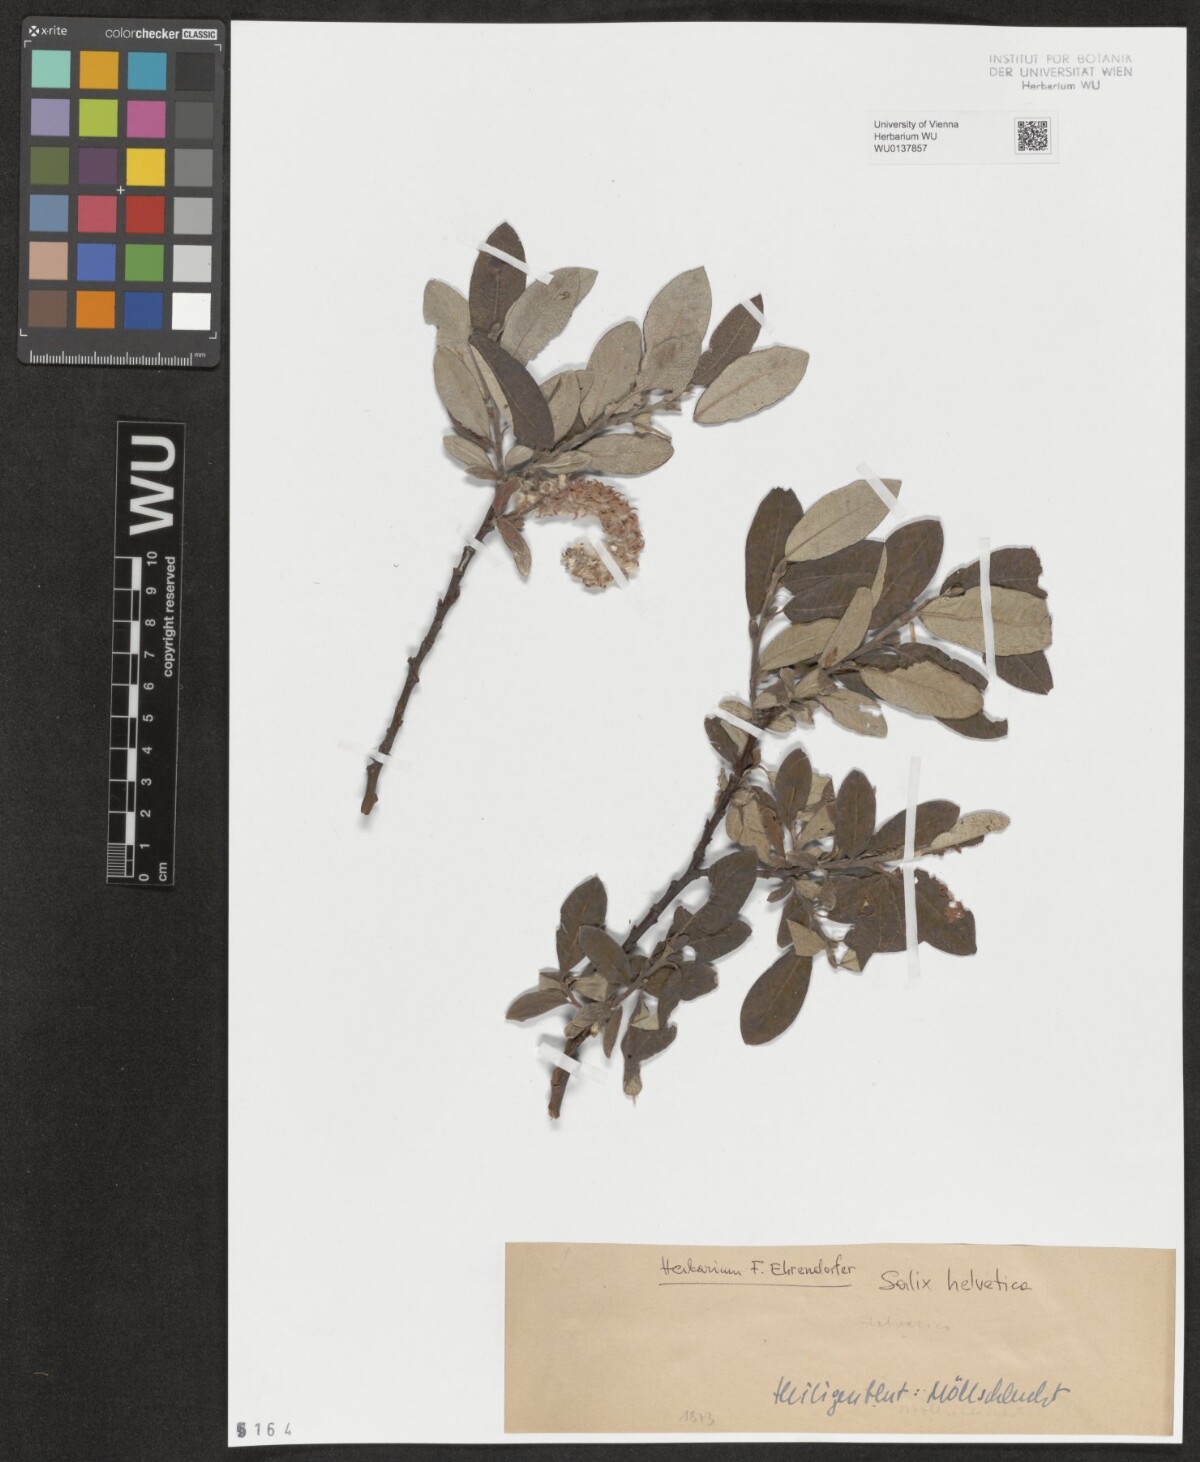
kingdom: Plantae
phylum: Tracheophyta
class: Magnoliopsida
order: Malpighiales
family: Salicaceae
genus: Salix
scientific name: Salix helvetica
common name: Swiss willow
